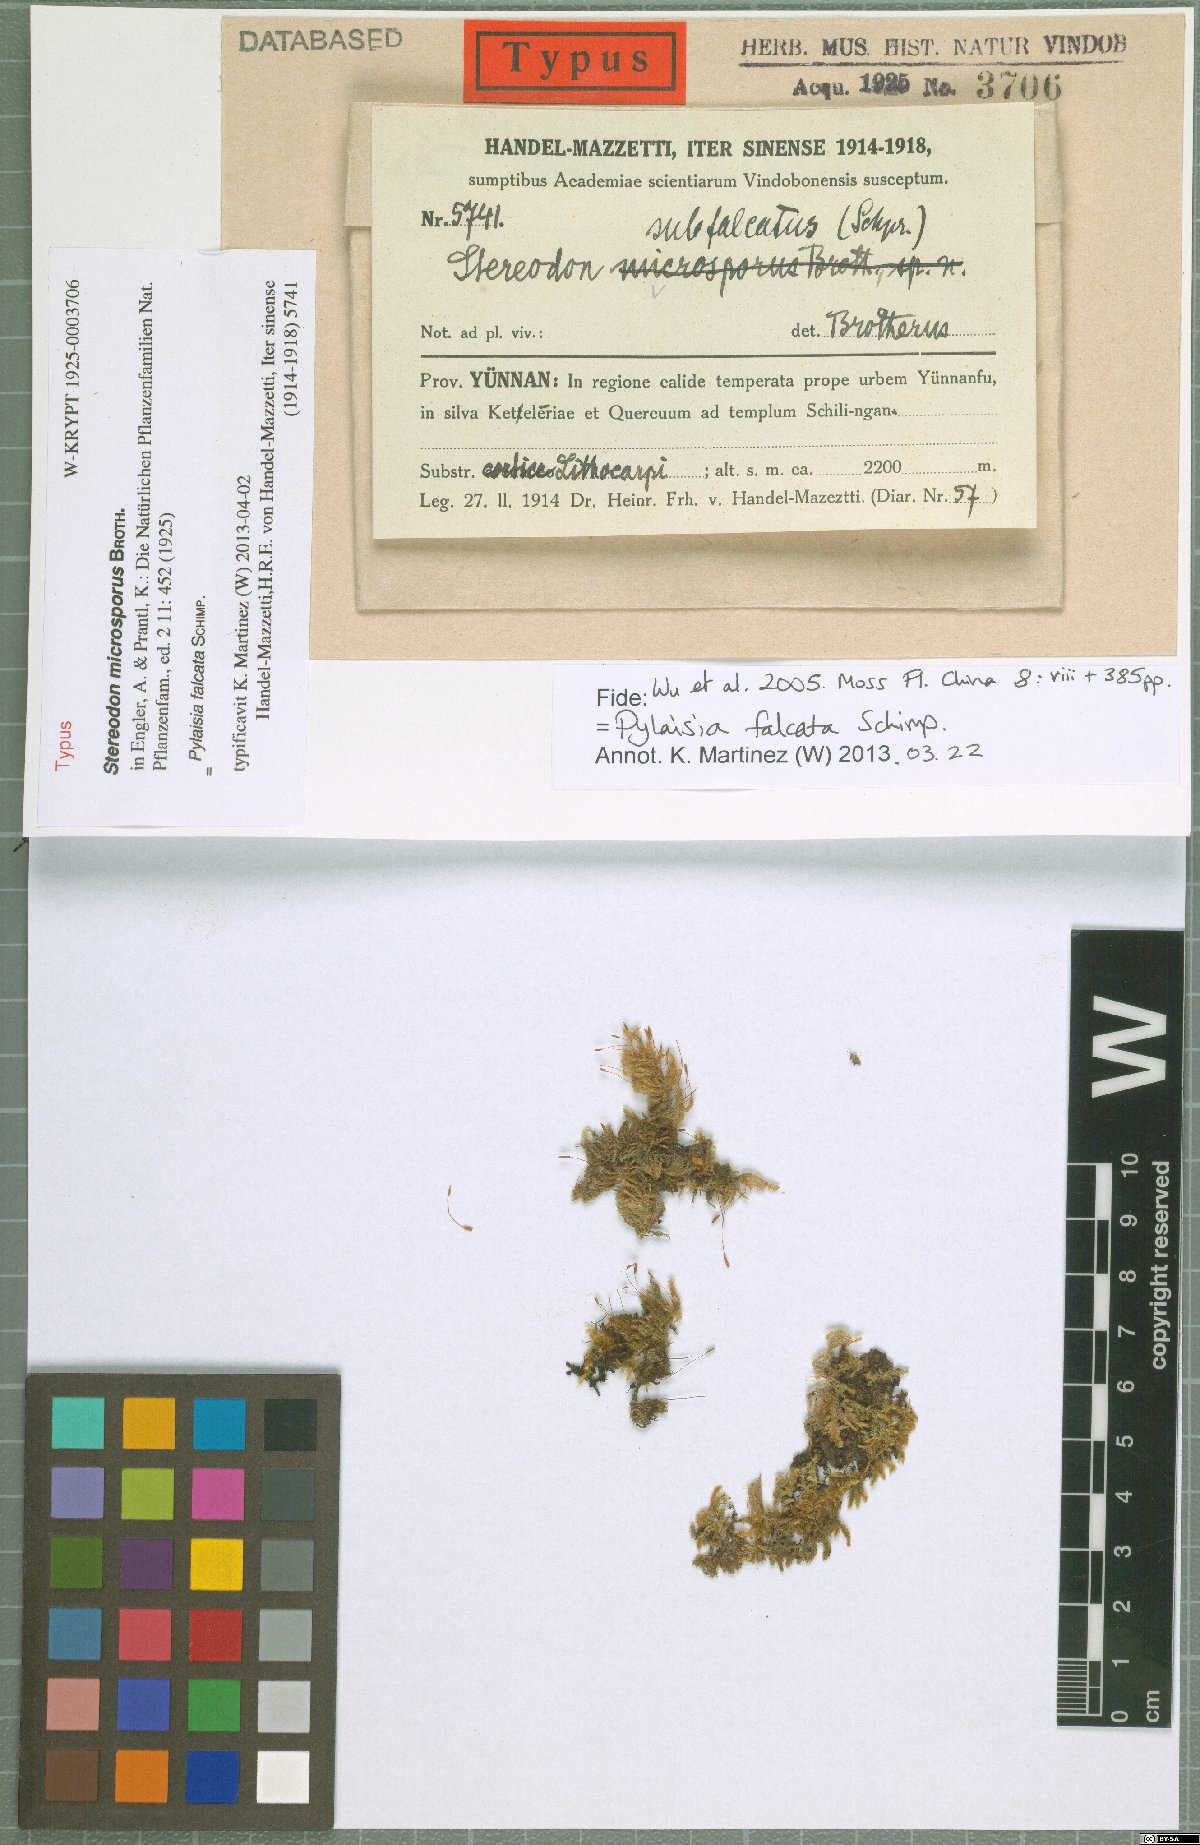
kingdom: Plantae
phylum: Bryophyta
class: Bryopsida
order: Hypnales
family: Pylaisiaceae
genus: Pylaisia
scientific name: Pylaisia falcata
